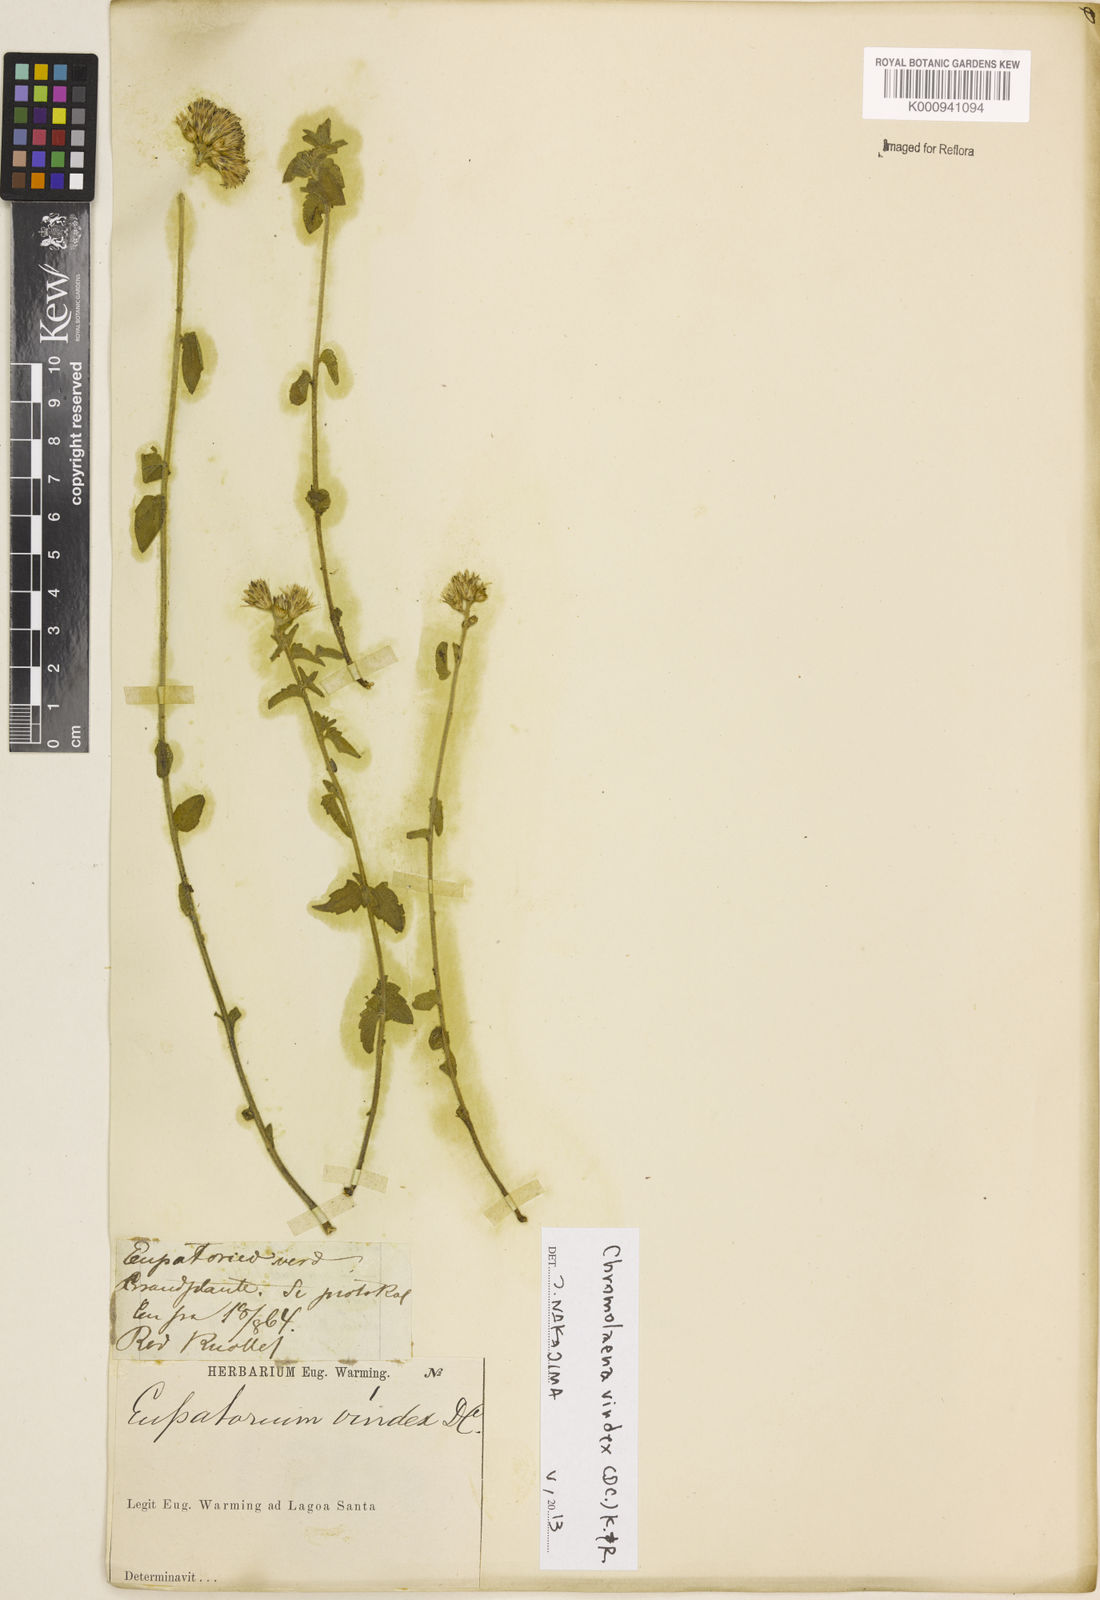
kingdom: Plantae
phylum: Tracheophyta
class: Magnoliopsida
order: Asterales
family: Asteraceae
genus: Chromolaena
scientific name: Chromolaena vindex
